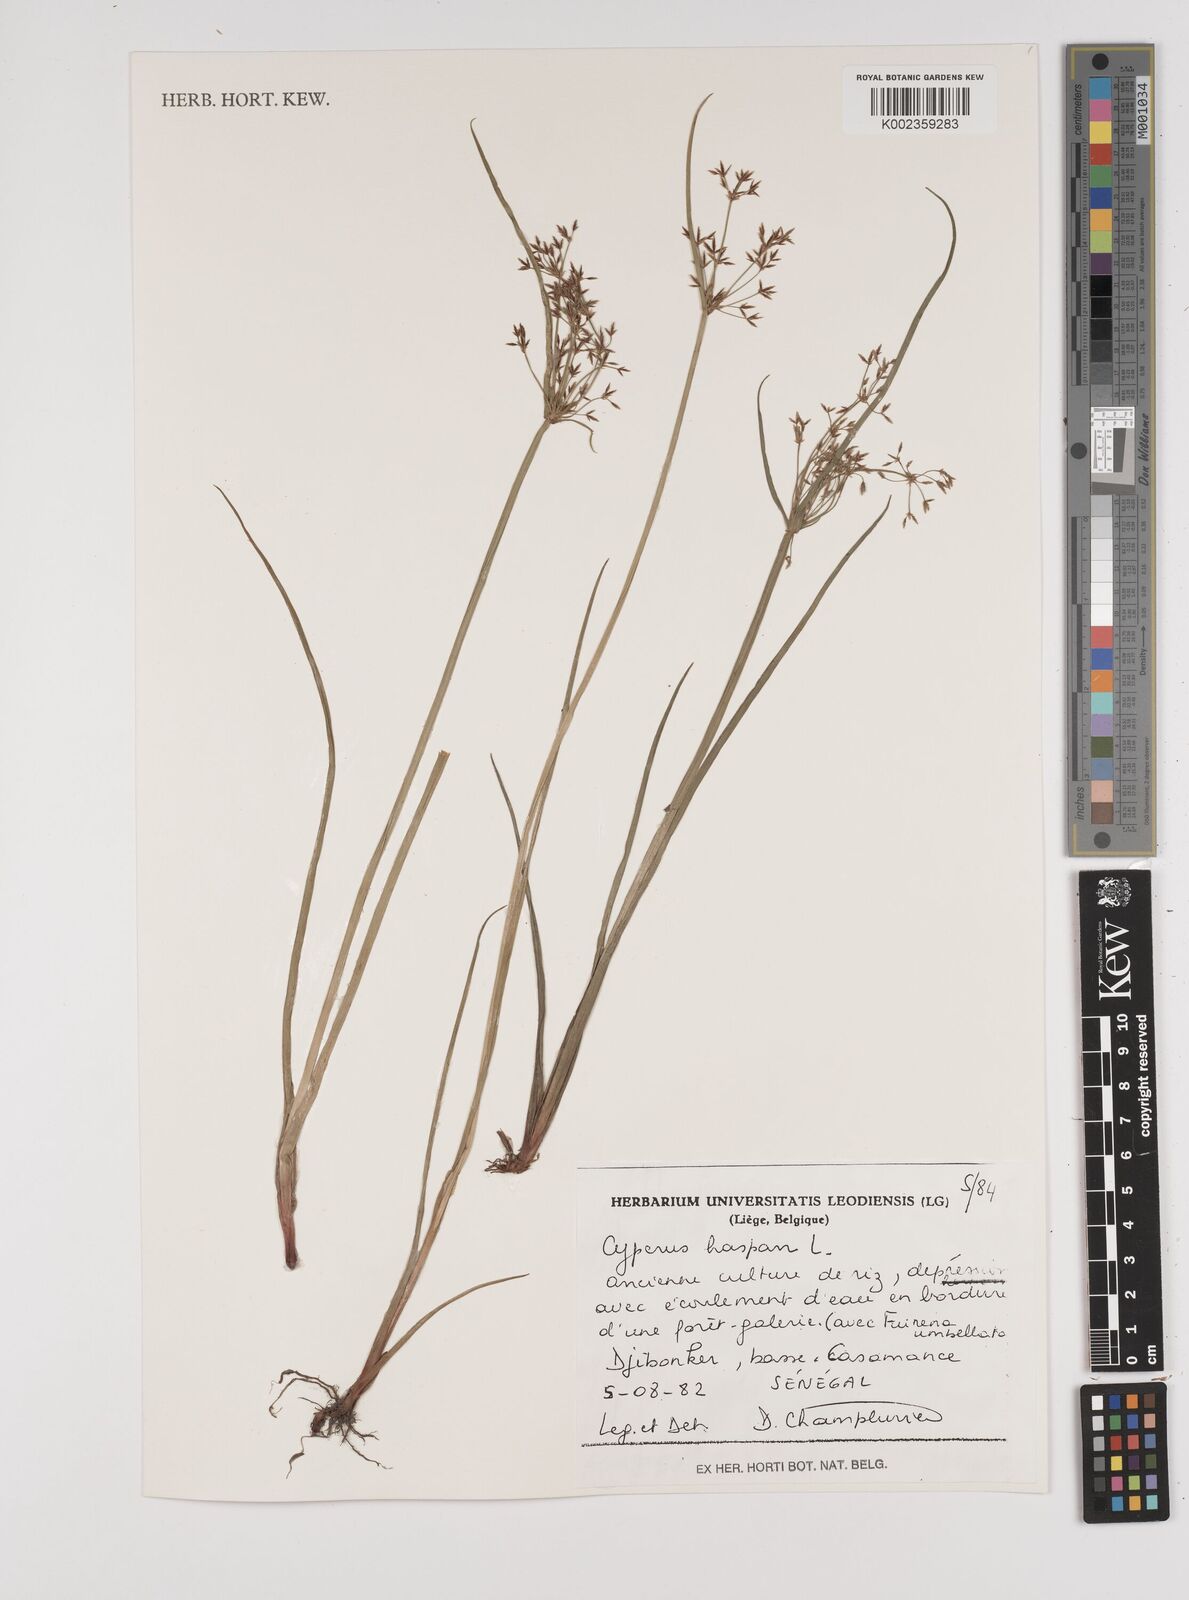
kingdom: Plantae
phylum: Tracheophyta
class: Liliopsida
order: Poales
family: Cyperaceae
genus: Cyperus
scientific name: Cyperus haspan
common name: Haspan flatsedge
